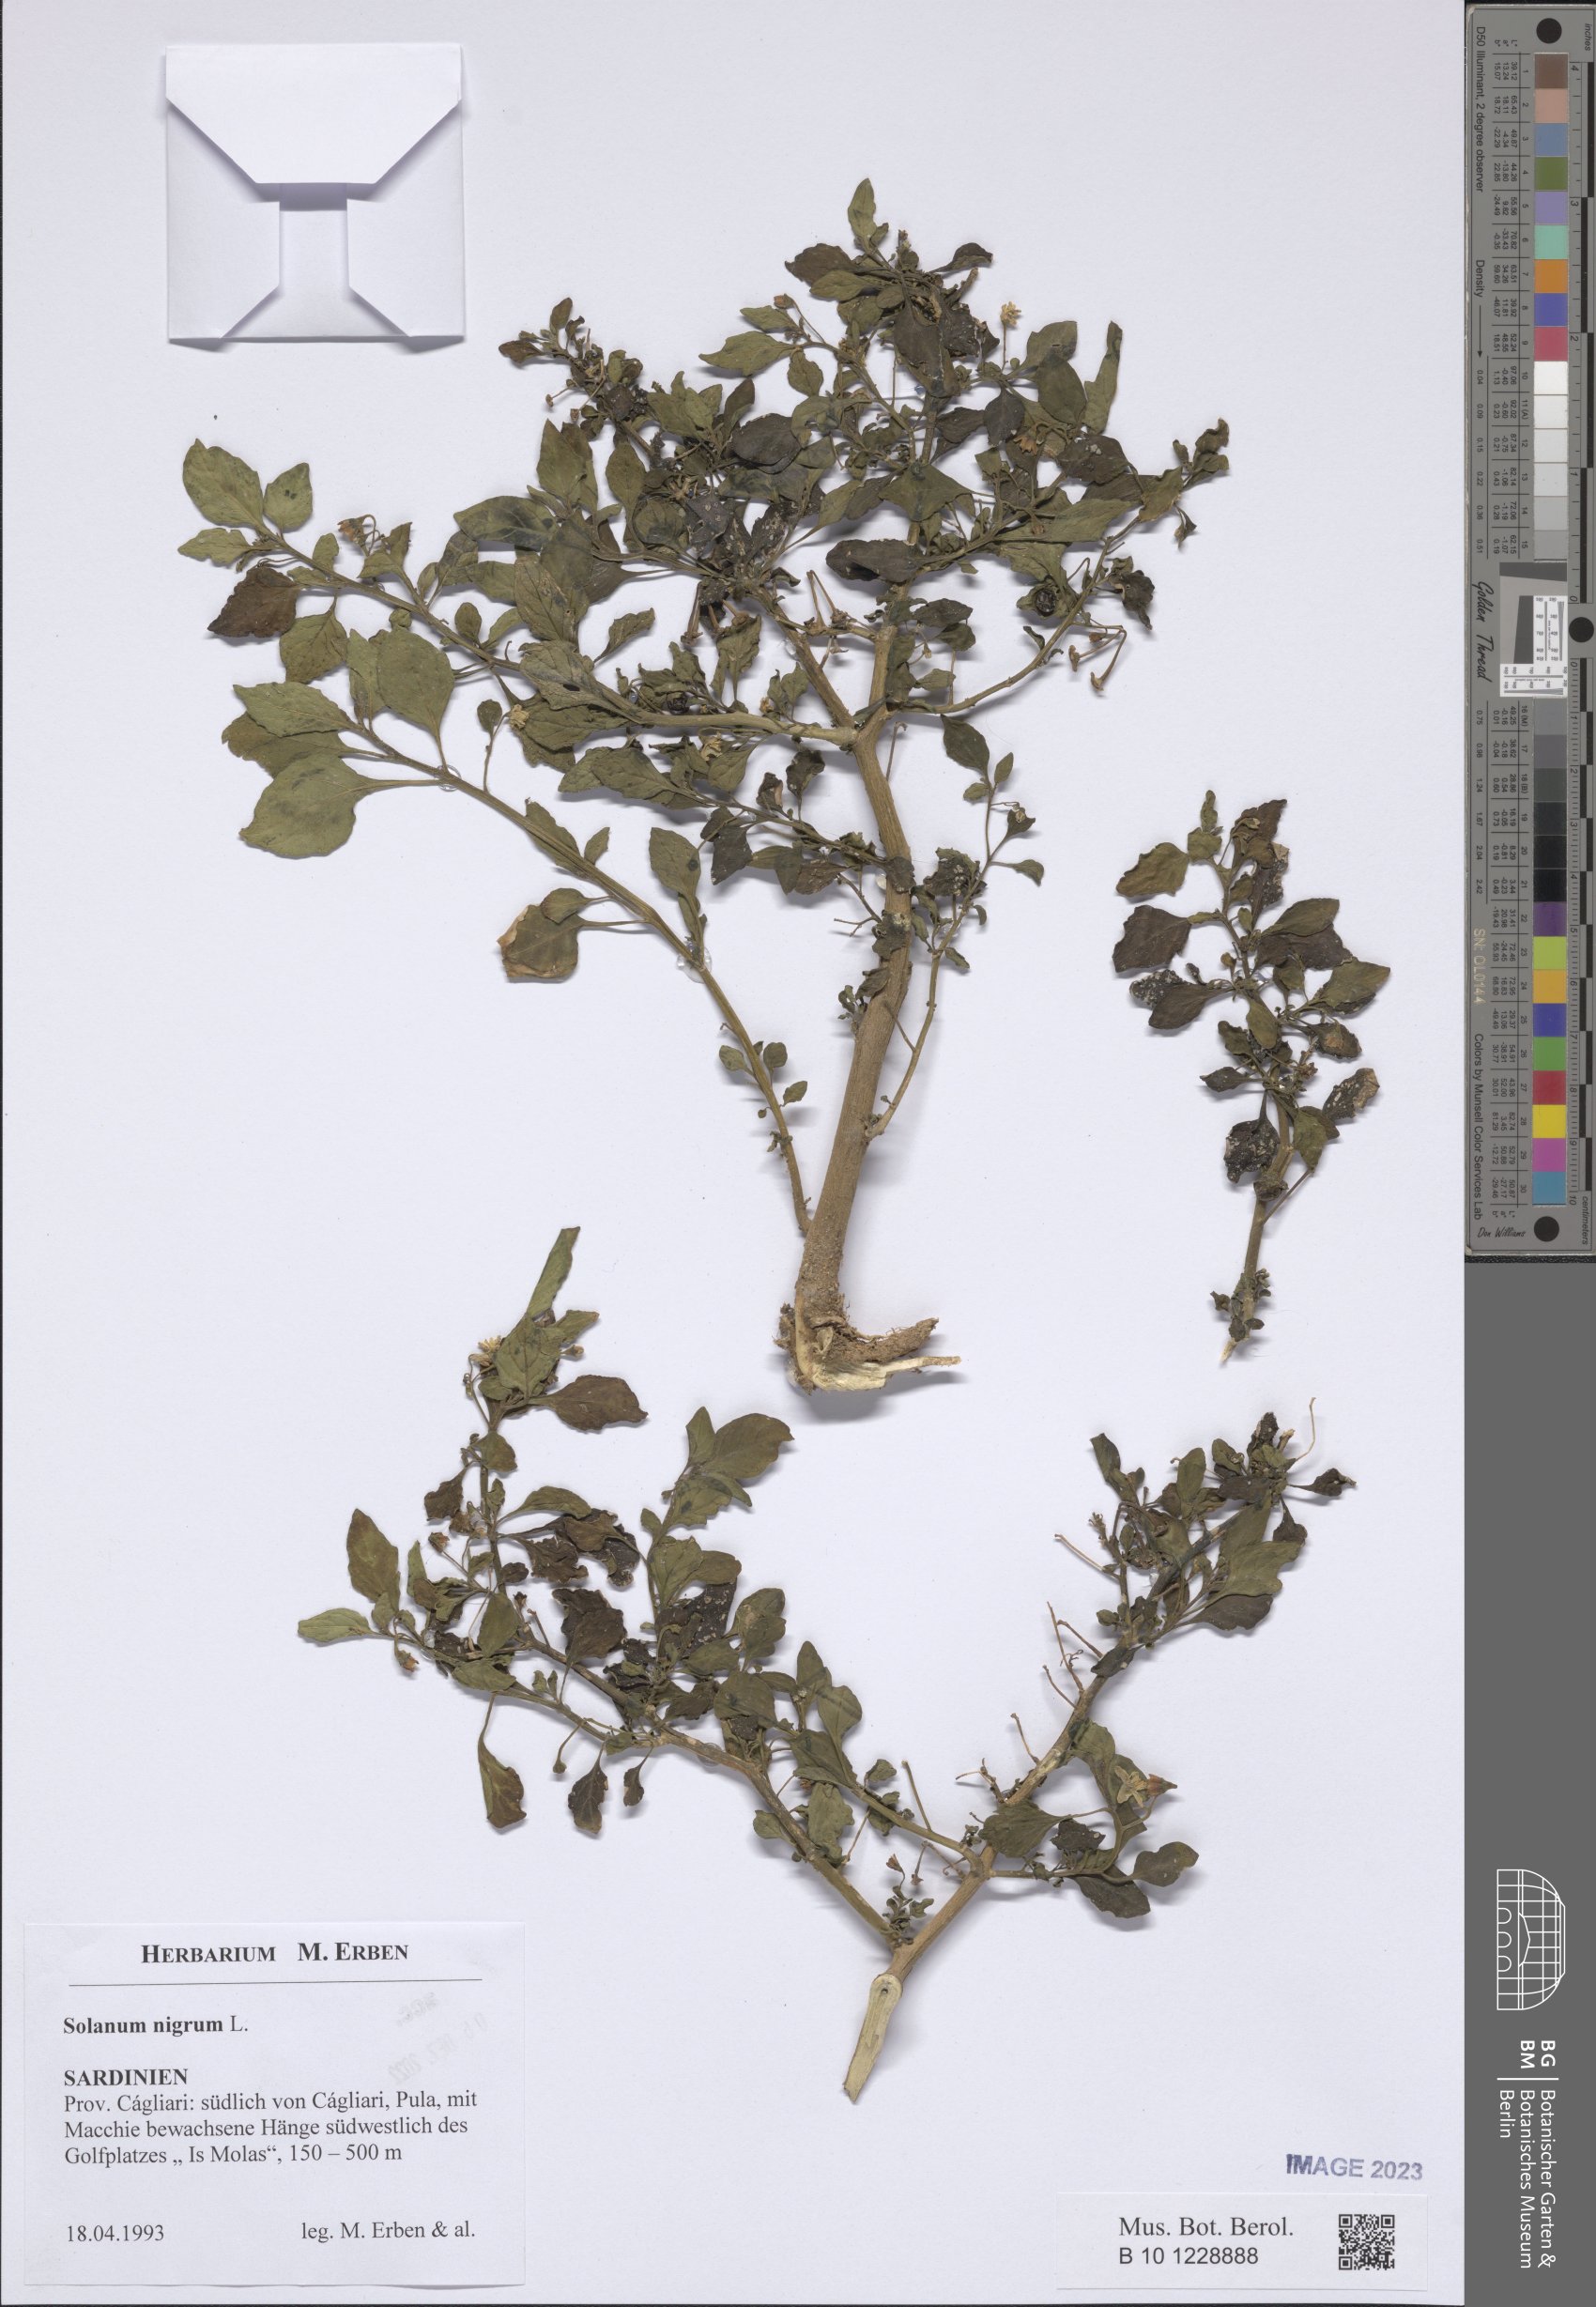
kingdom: Plantae
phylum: Tracheophyta
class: Magnoliopsida
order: Solanales
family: Solanaceae
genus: Solanum
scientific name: Solanum nigrum
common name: Black nightshade
